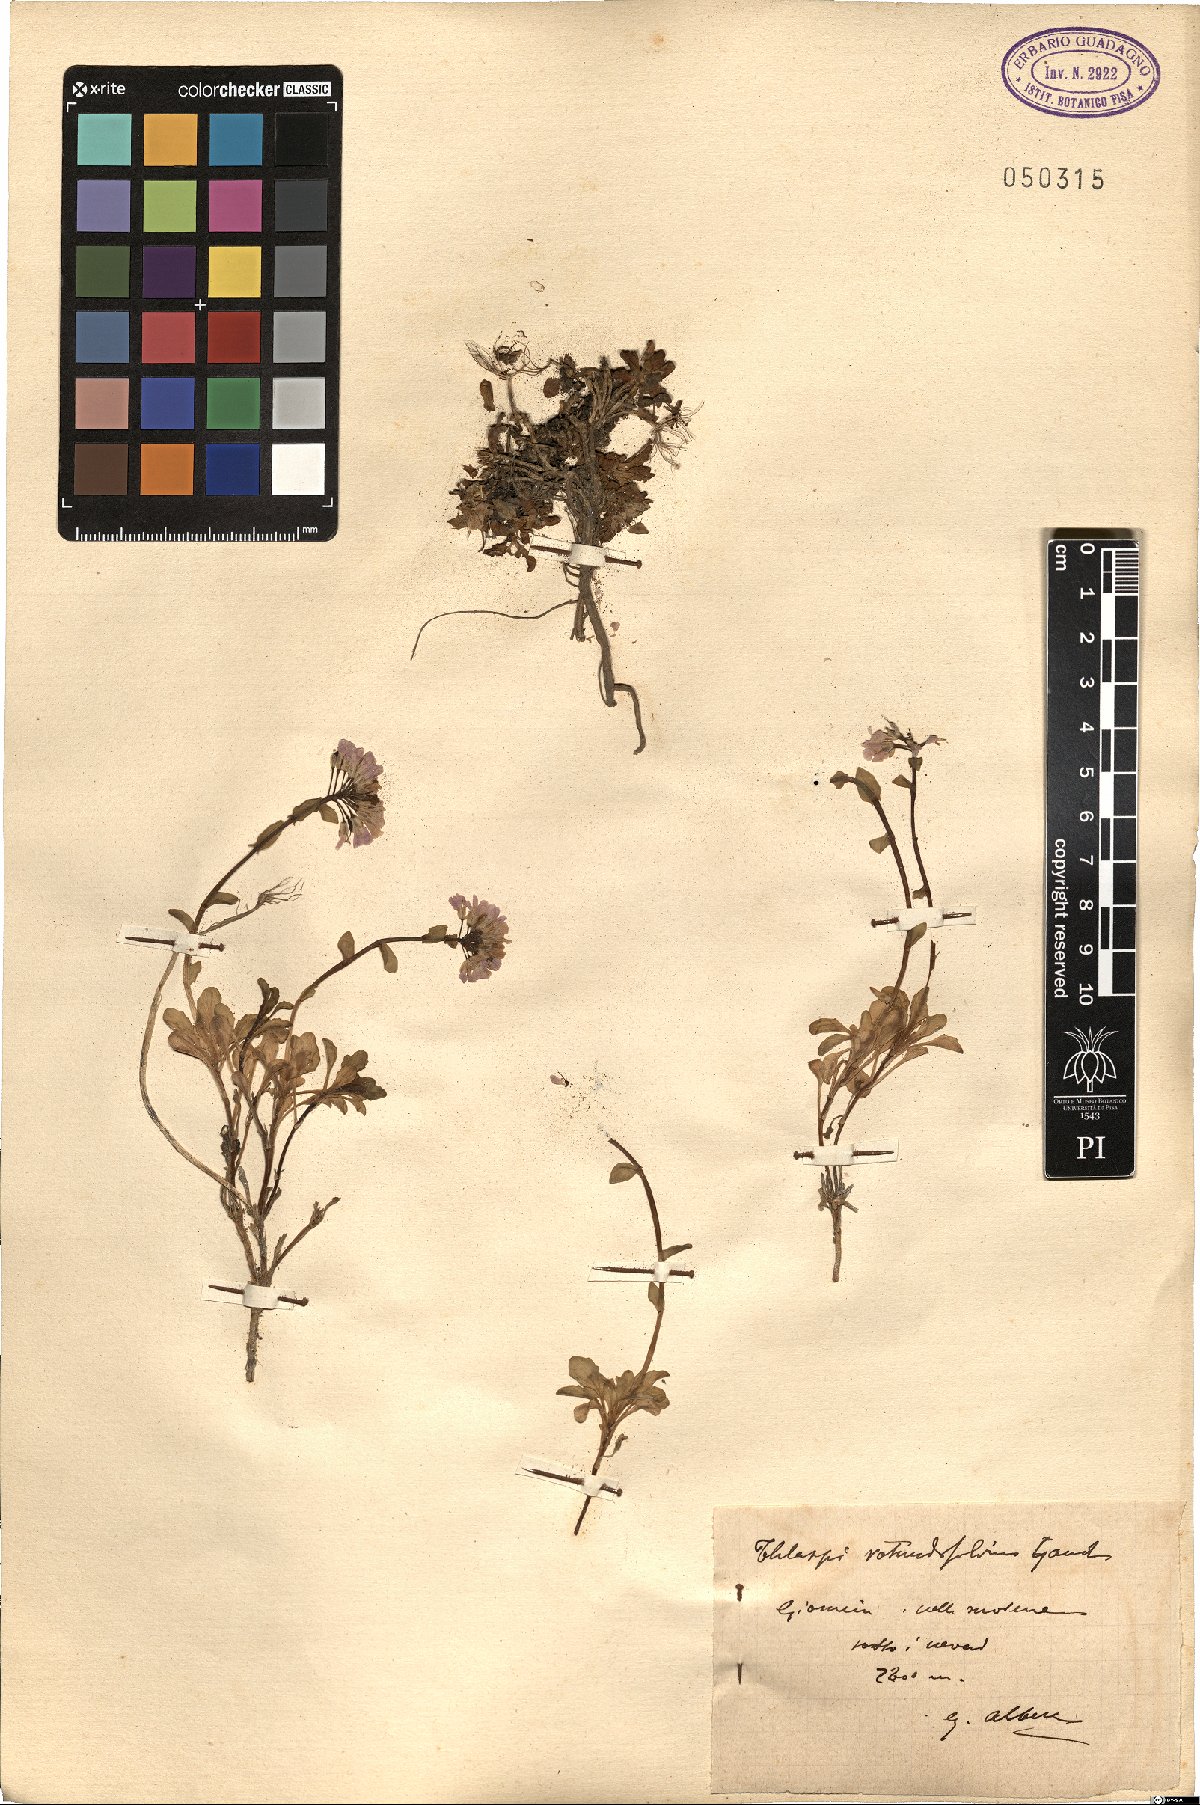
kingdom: Plantae
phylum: Tracheophyta
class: Magnoliopsida
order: Brassicales
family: Brassicaceae
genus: Noccaea
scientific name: Noccaea rotundifolia
